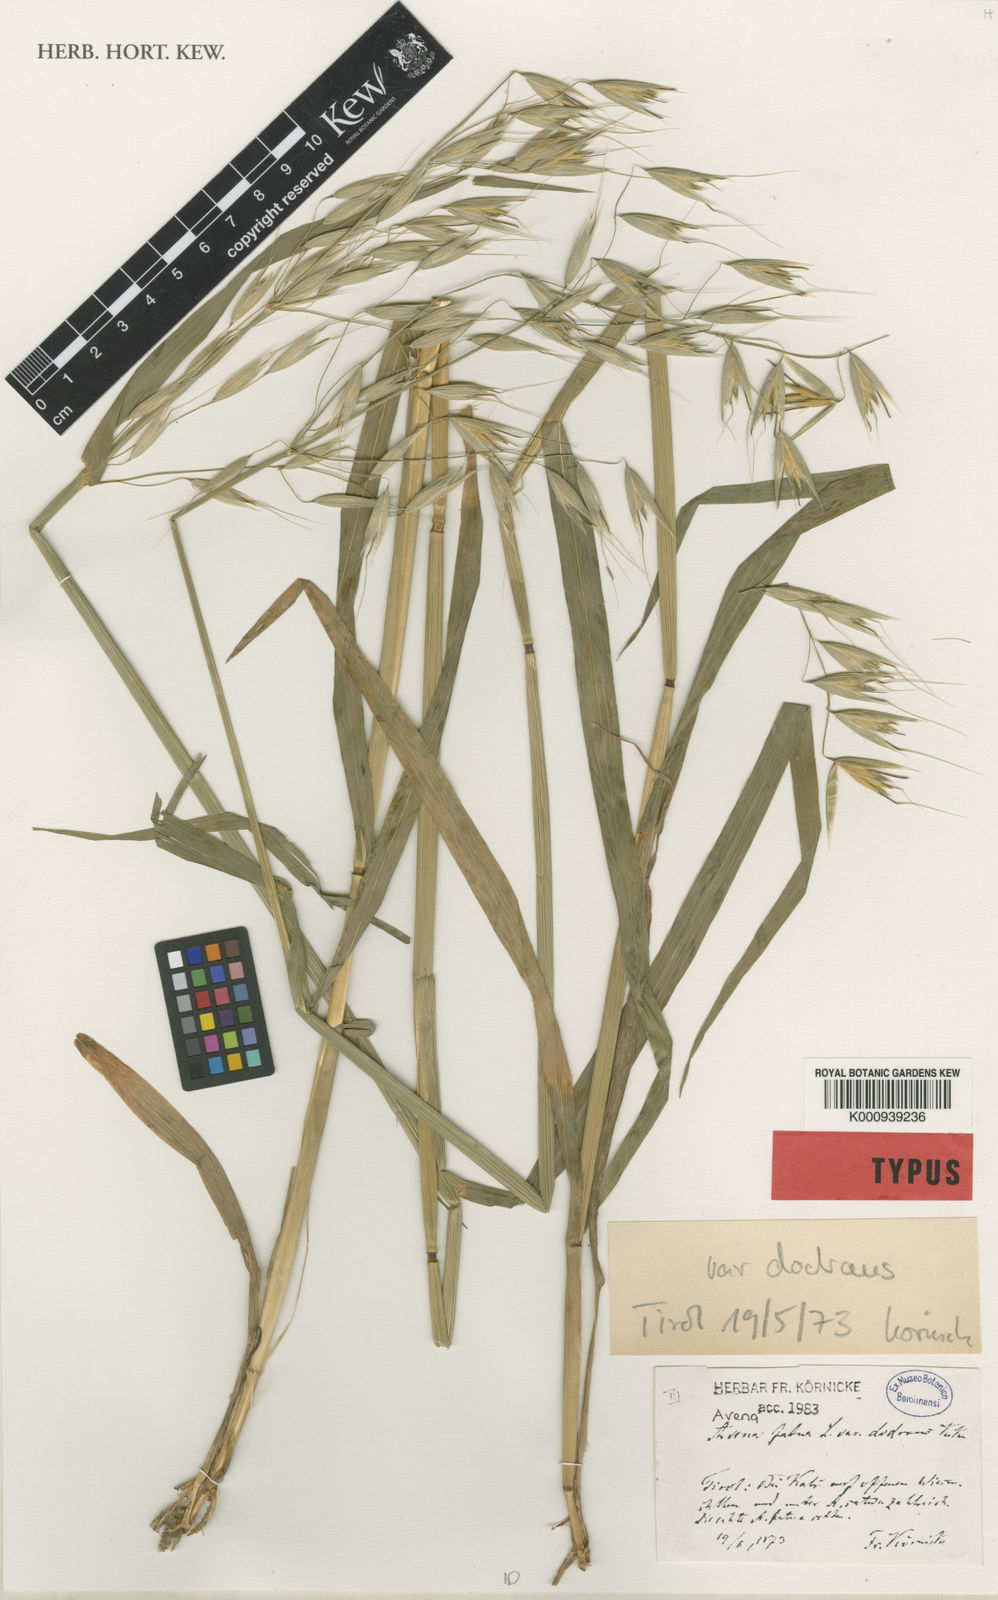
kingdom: Plantae
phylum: Tracheophyta
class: Liliopsida
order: Poales
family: Poaceae
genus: Avena
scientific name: Avena fatua
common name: Wild oat
